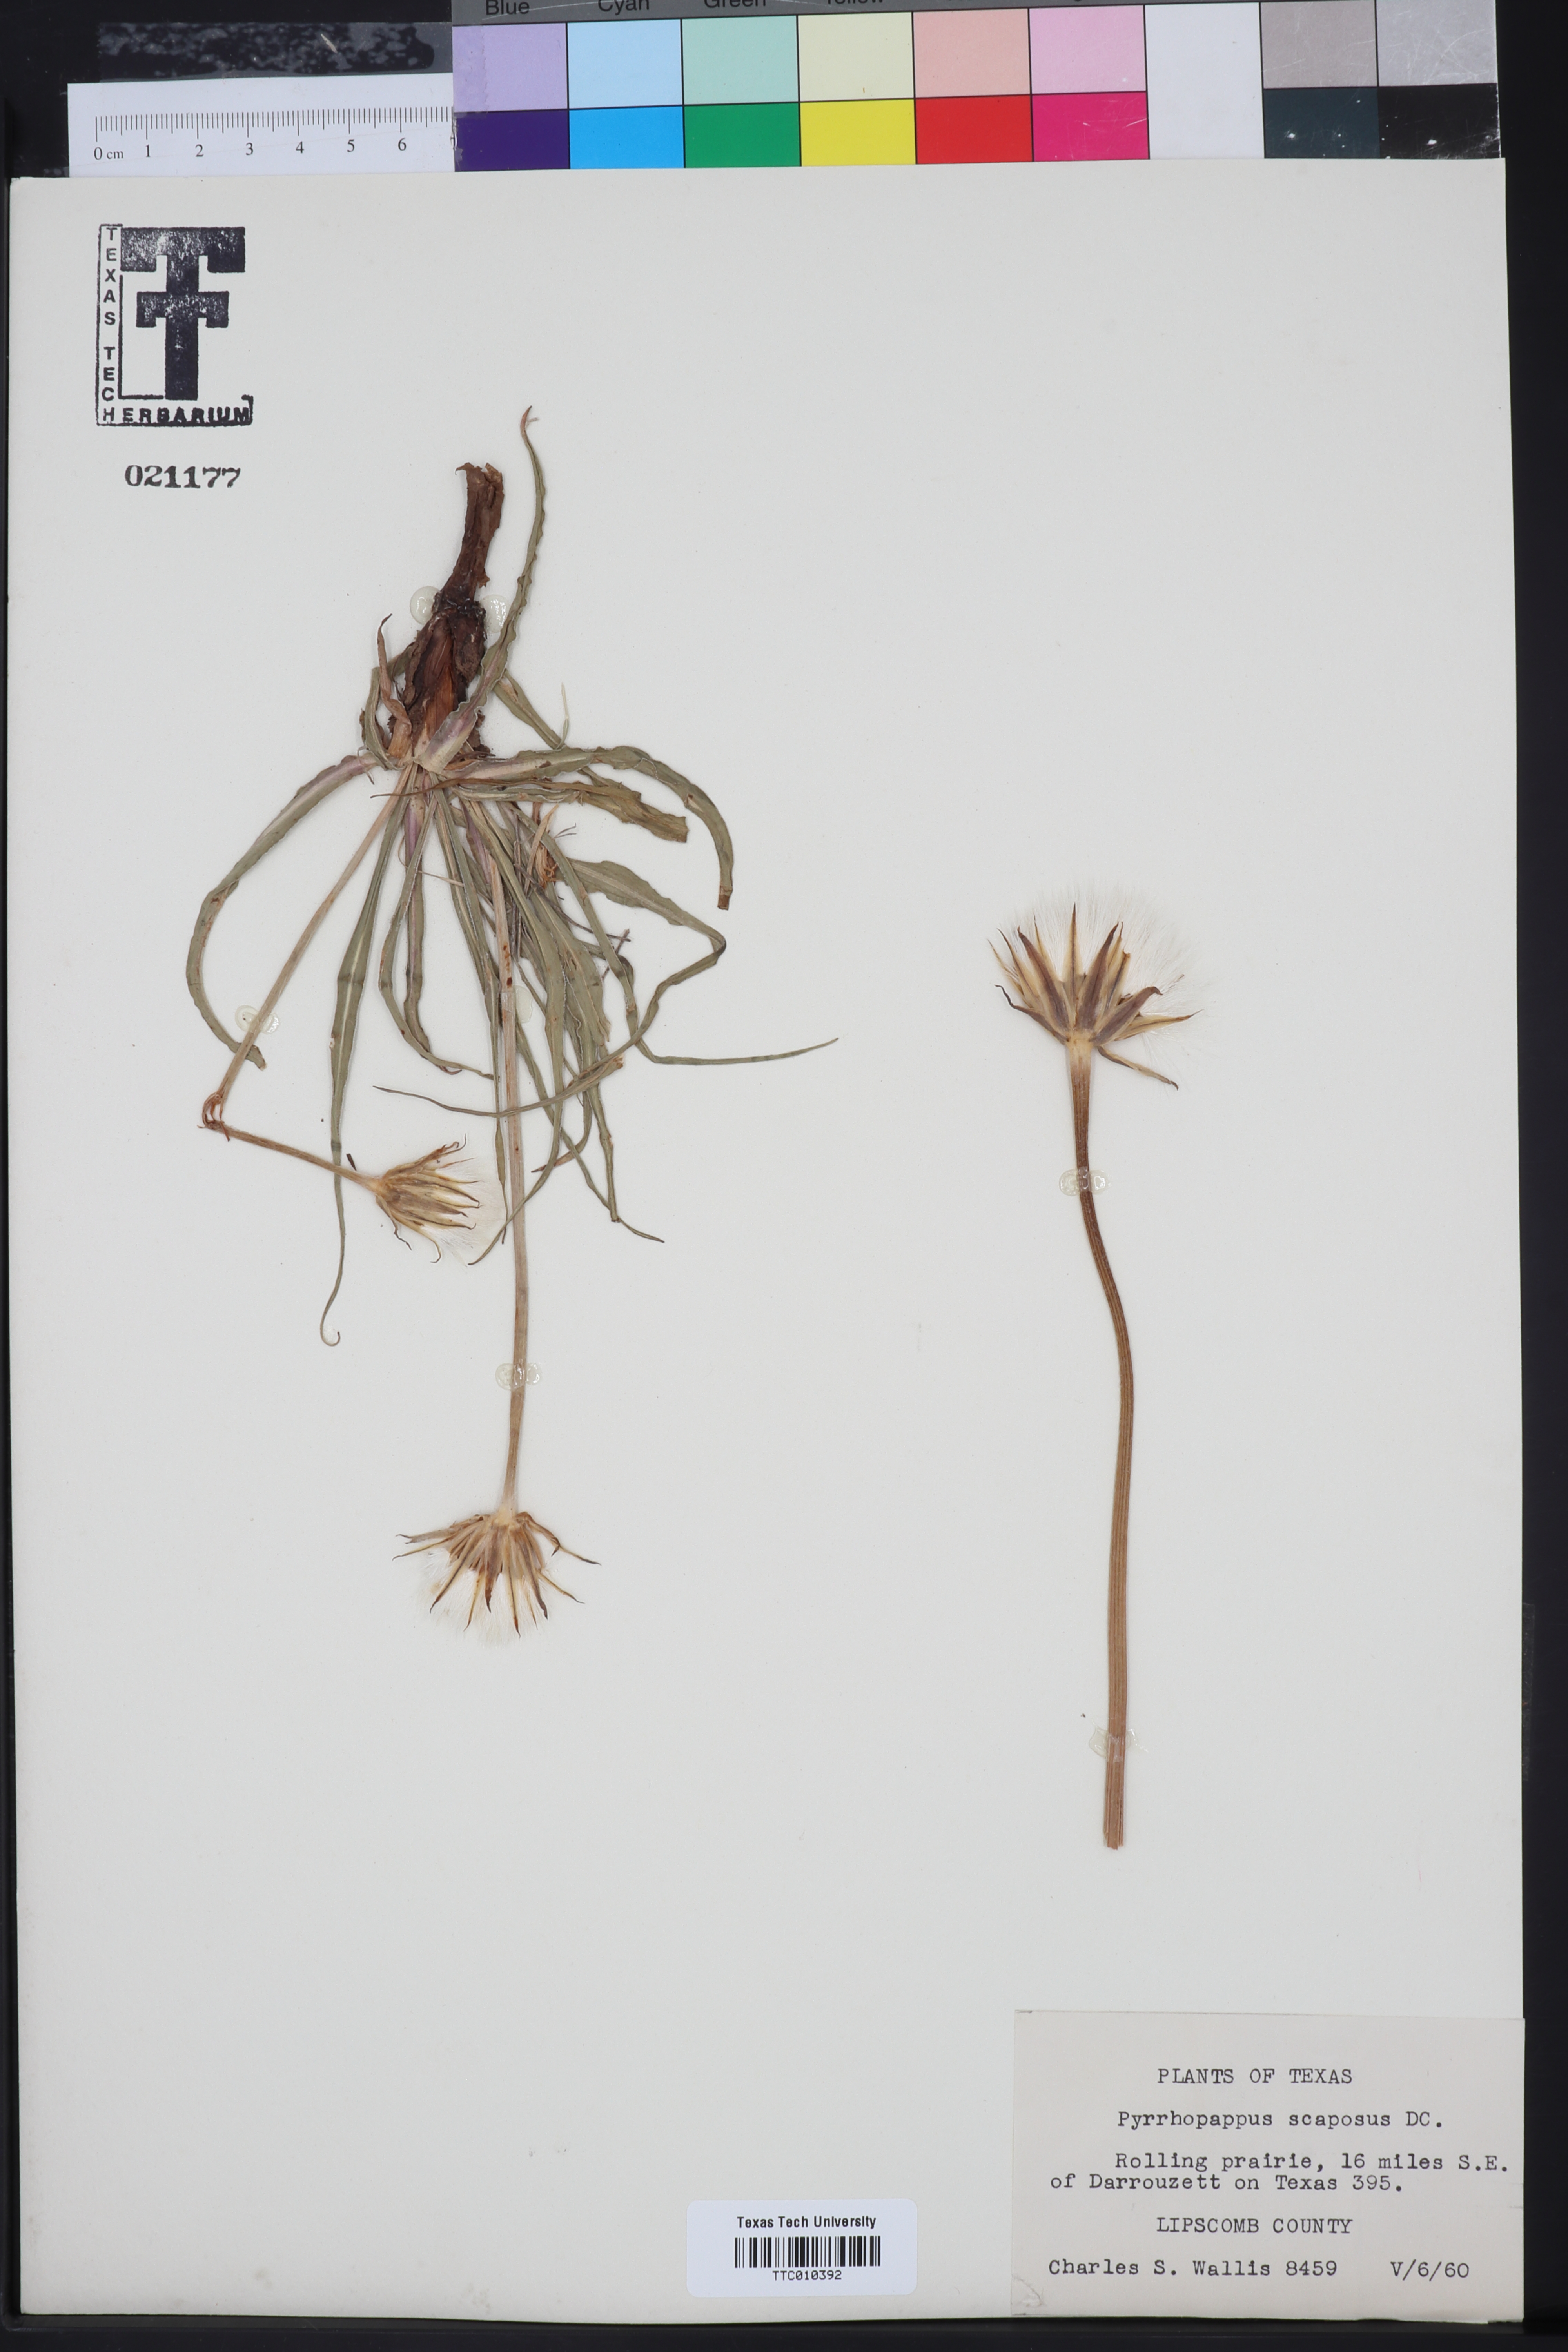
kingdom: Plantae
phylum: Tracheophyta
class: Magnoliopsida
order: Asterales
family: Asteraceae
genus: Pyrrhopappus
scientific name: Pyrrhopappus grandiflorus
